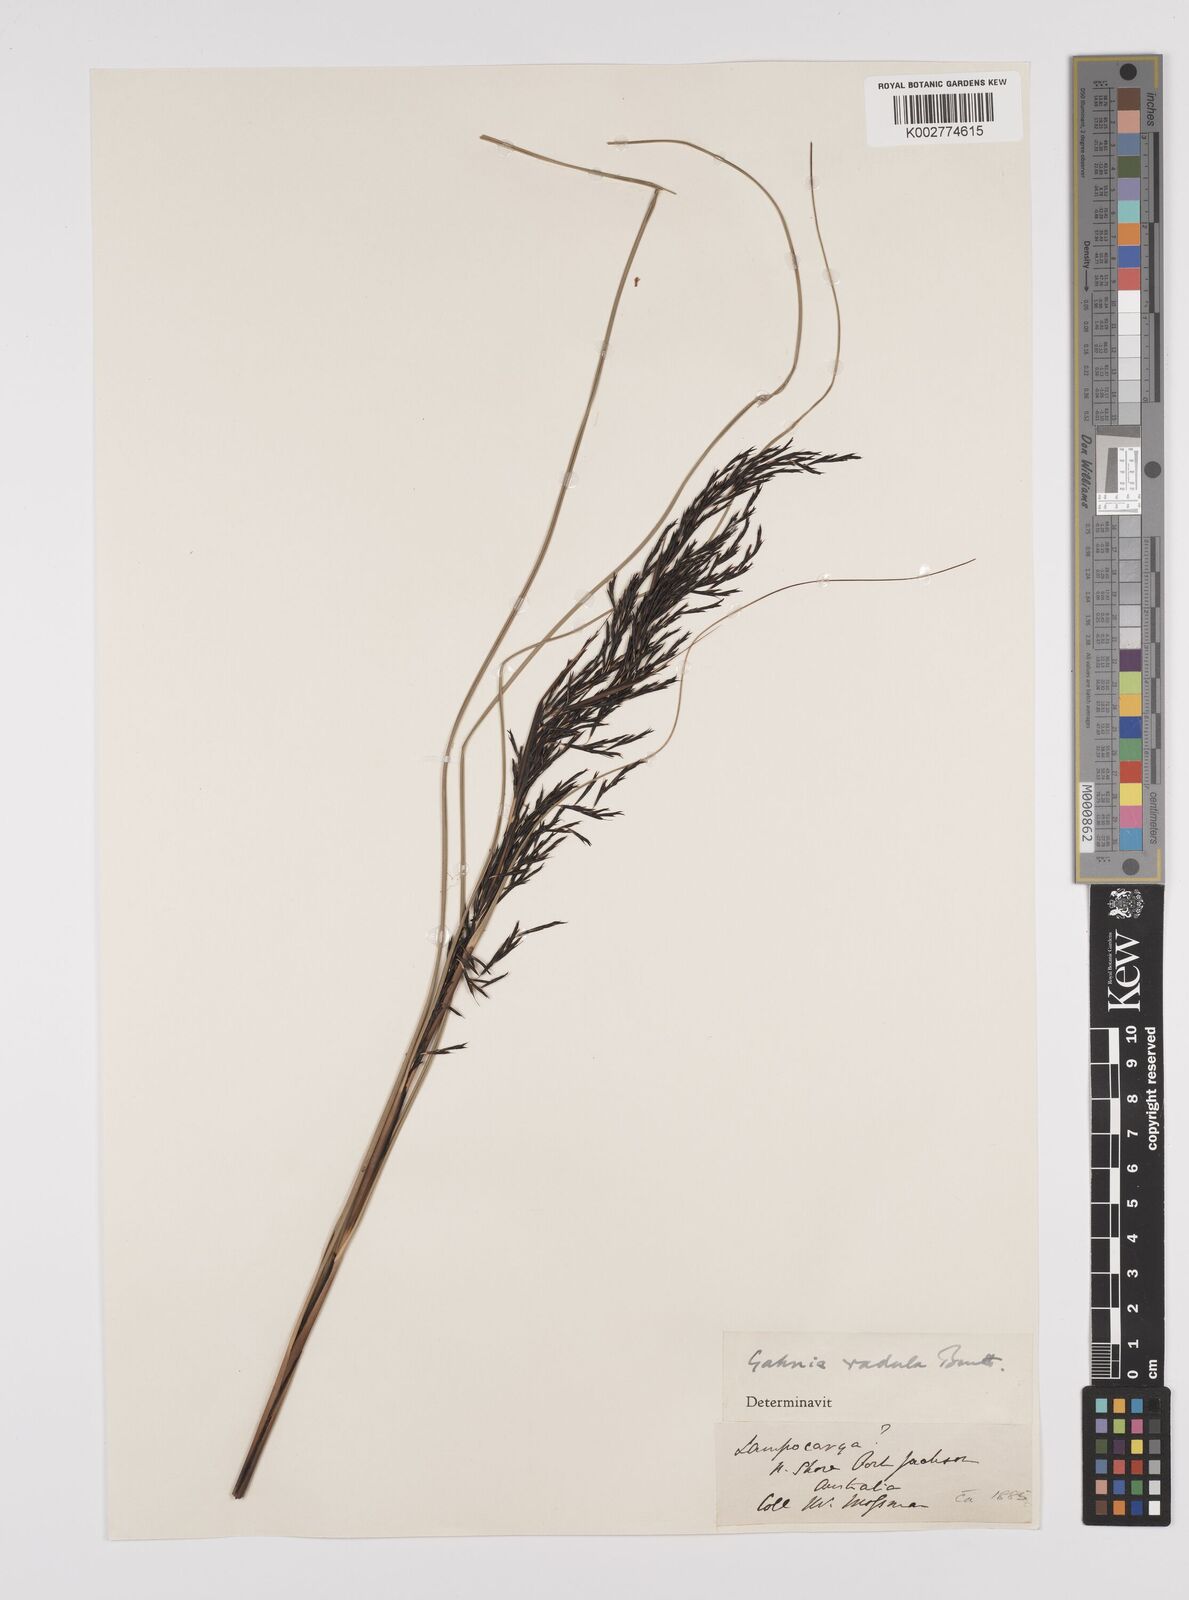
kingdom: Plantae
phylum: Tracheophyta
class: Liliopsida
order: Poales
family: Cyperaceae
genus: Gahnia
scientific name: Gahnia radula
